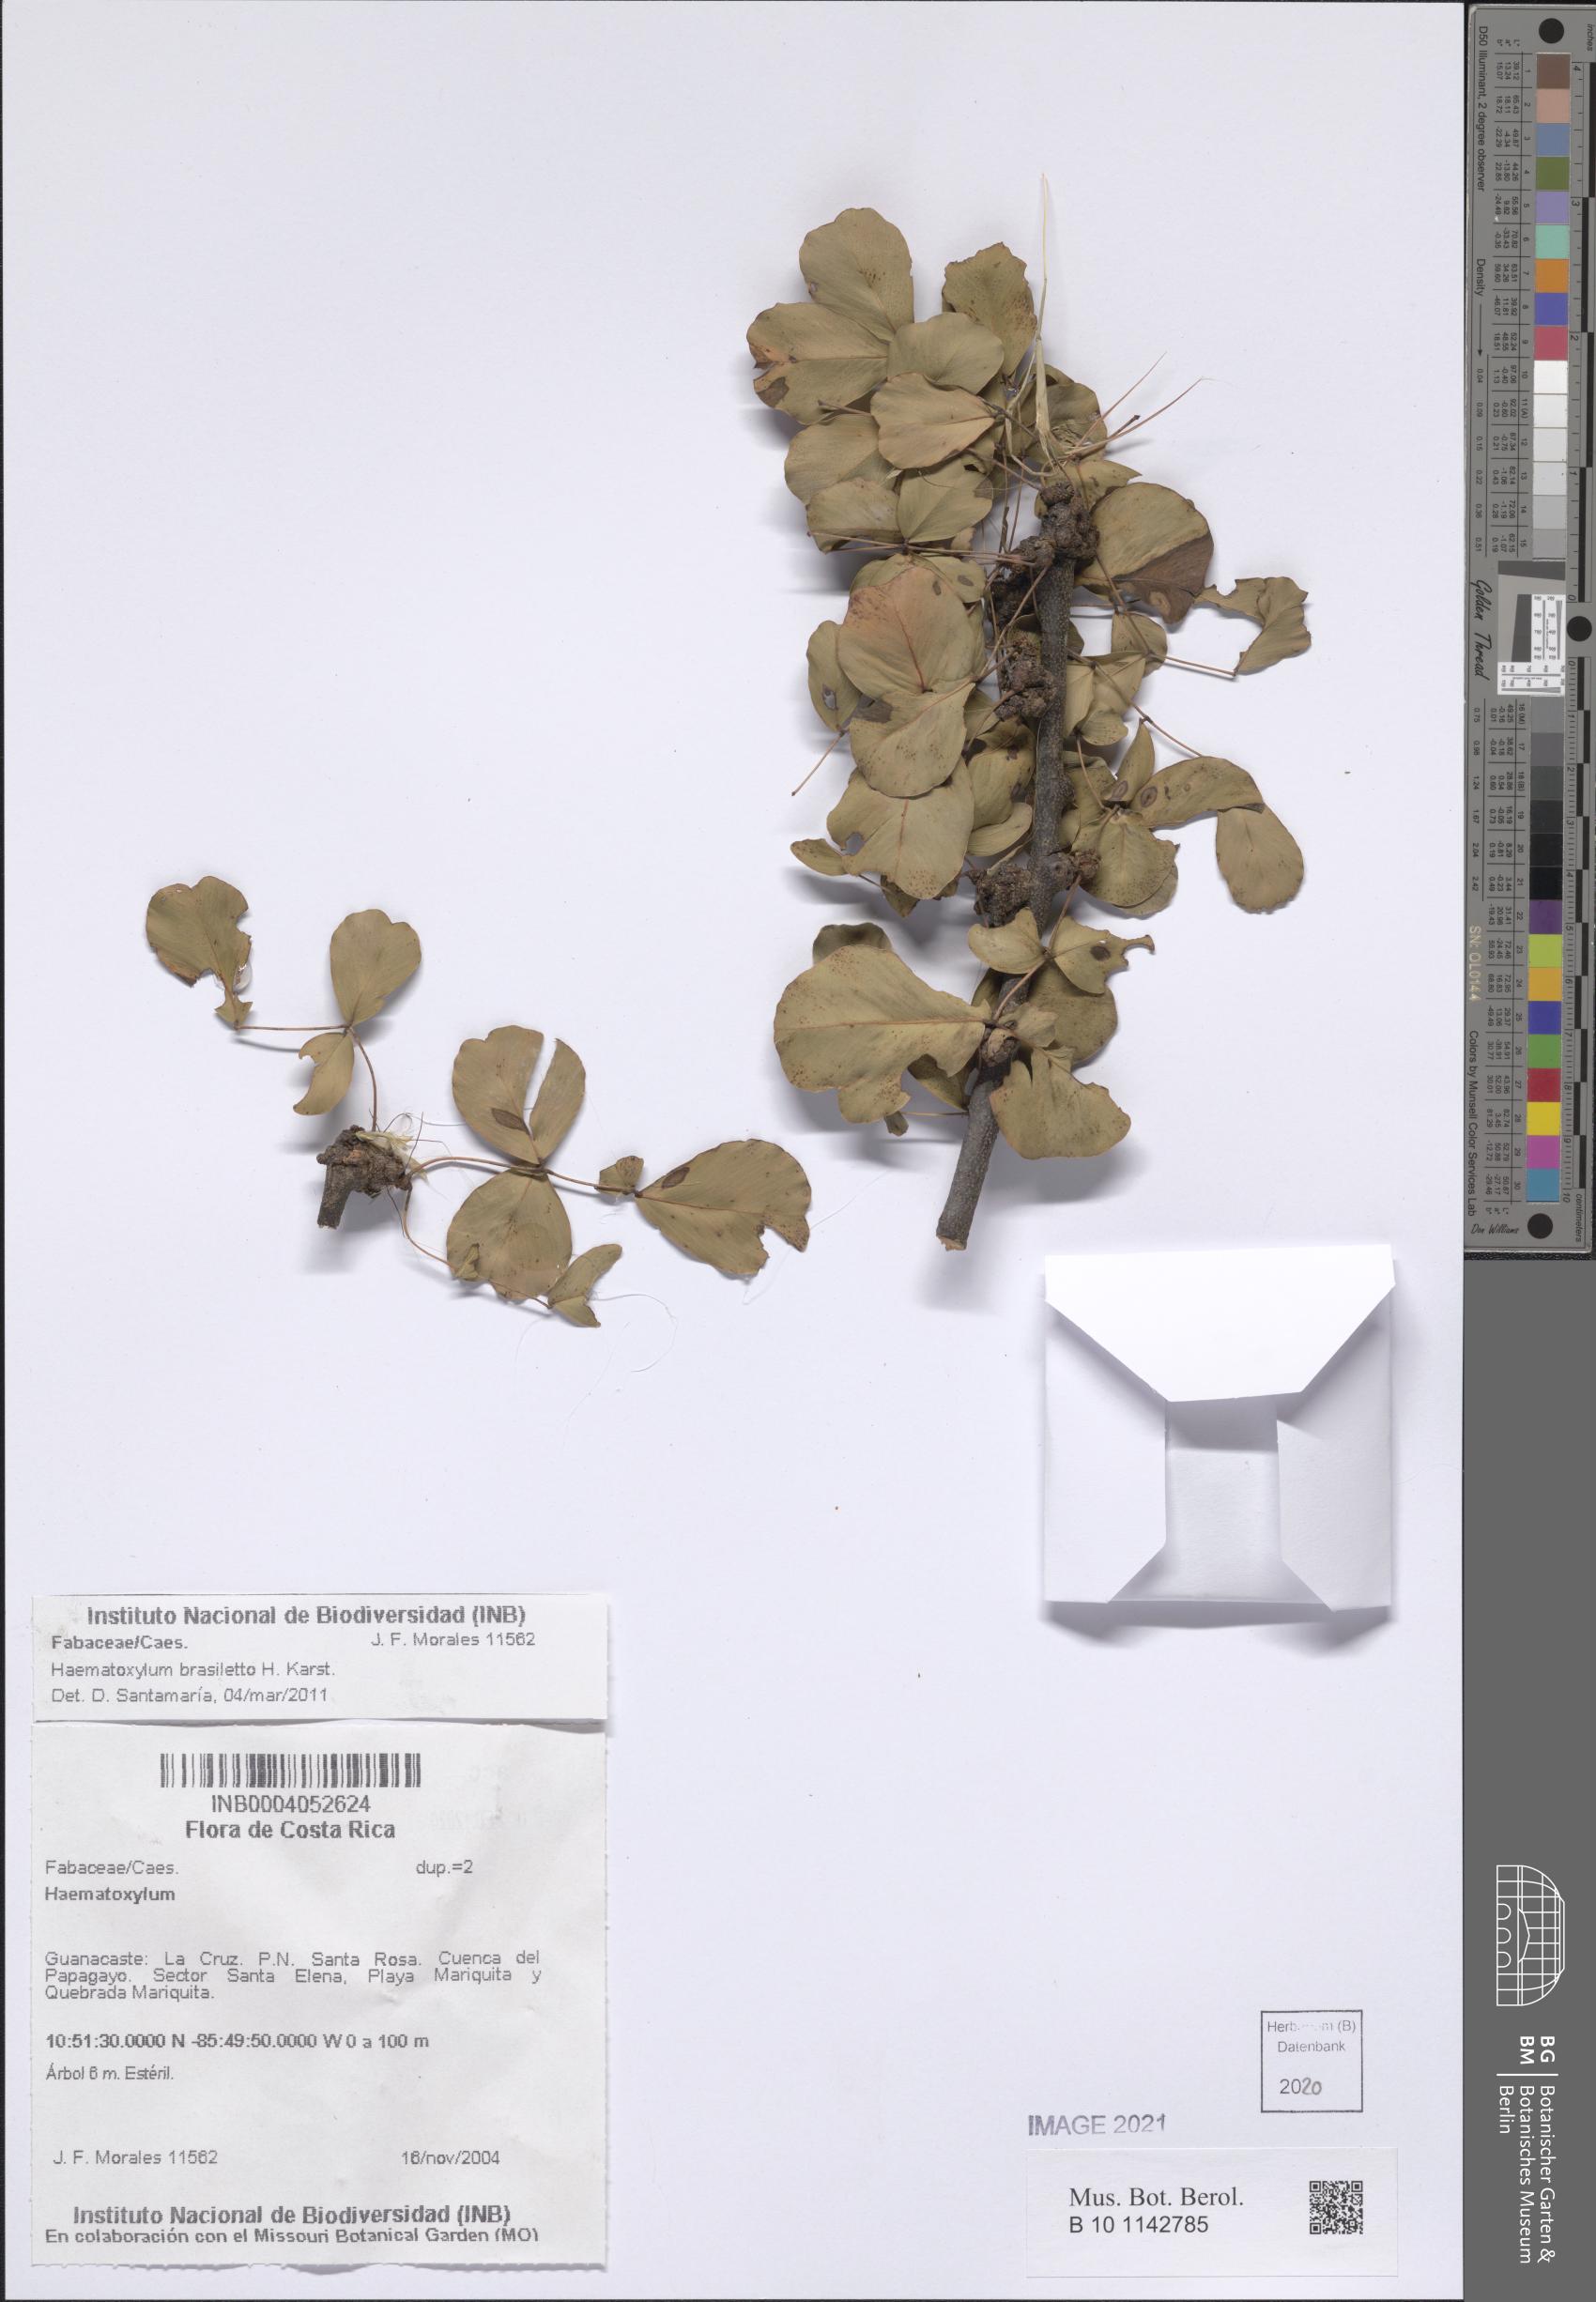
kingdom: Plantae
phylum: Tracheophyta
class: Magnoliopsida
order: Fabales
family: Fabaceae
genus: Haematoxylum
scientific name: Haematoxylum brasiletto
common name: Peachwood
